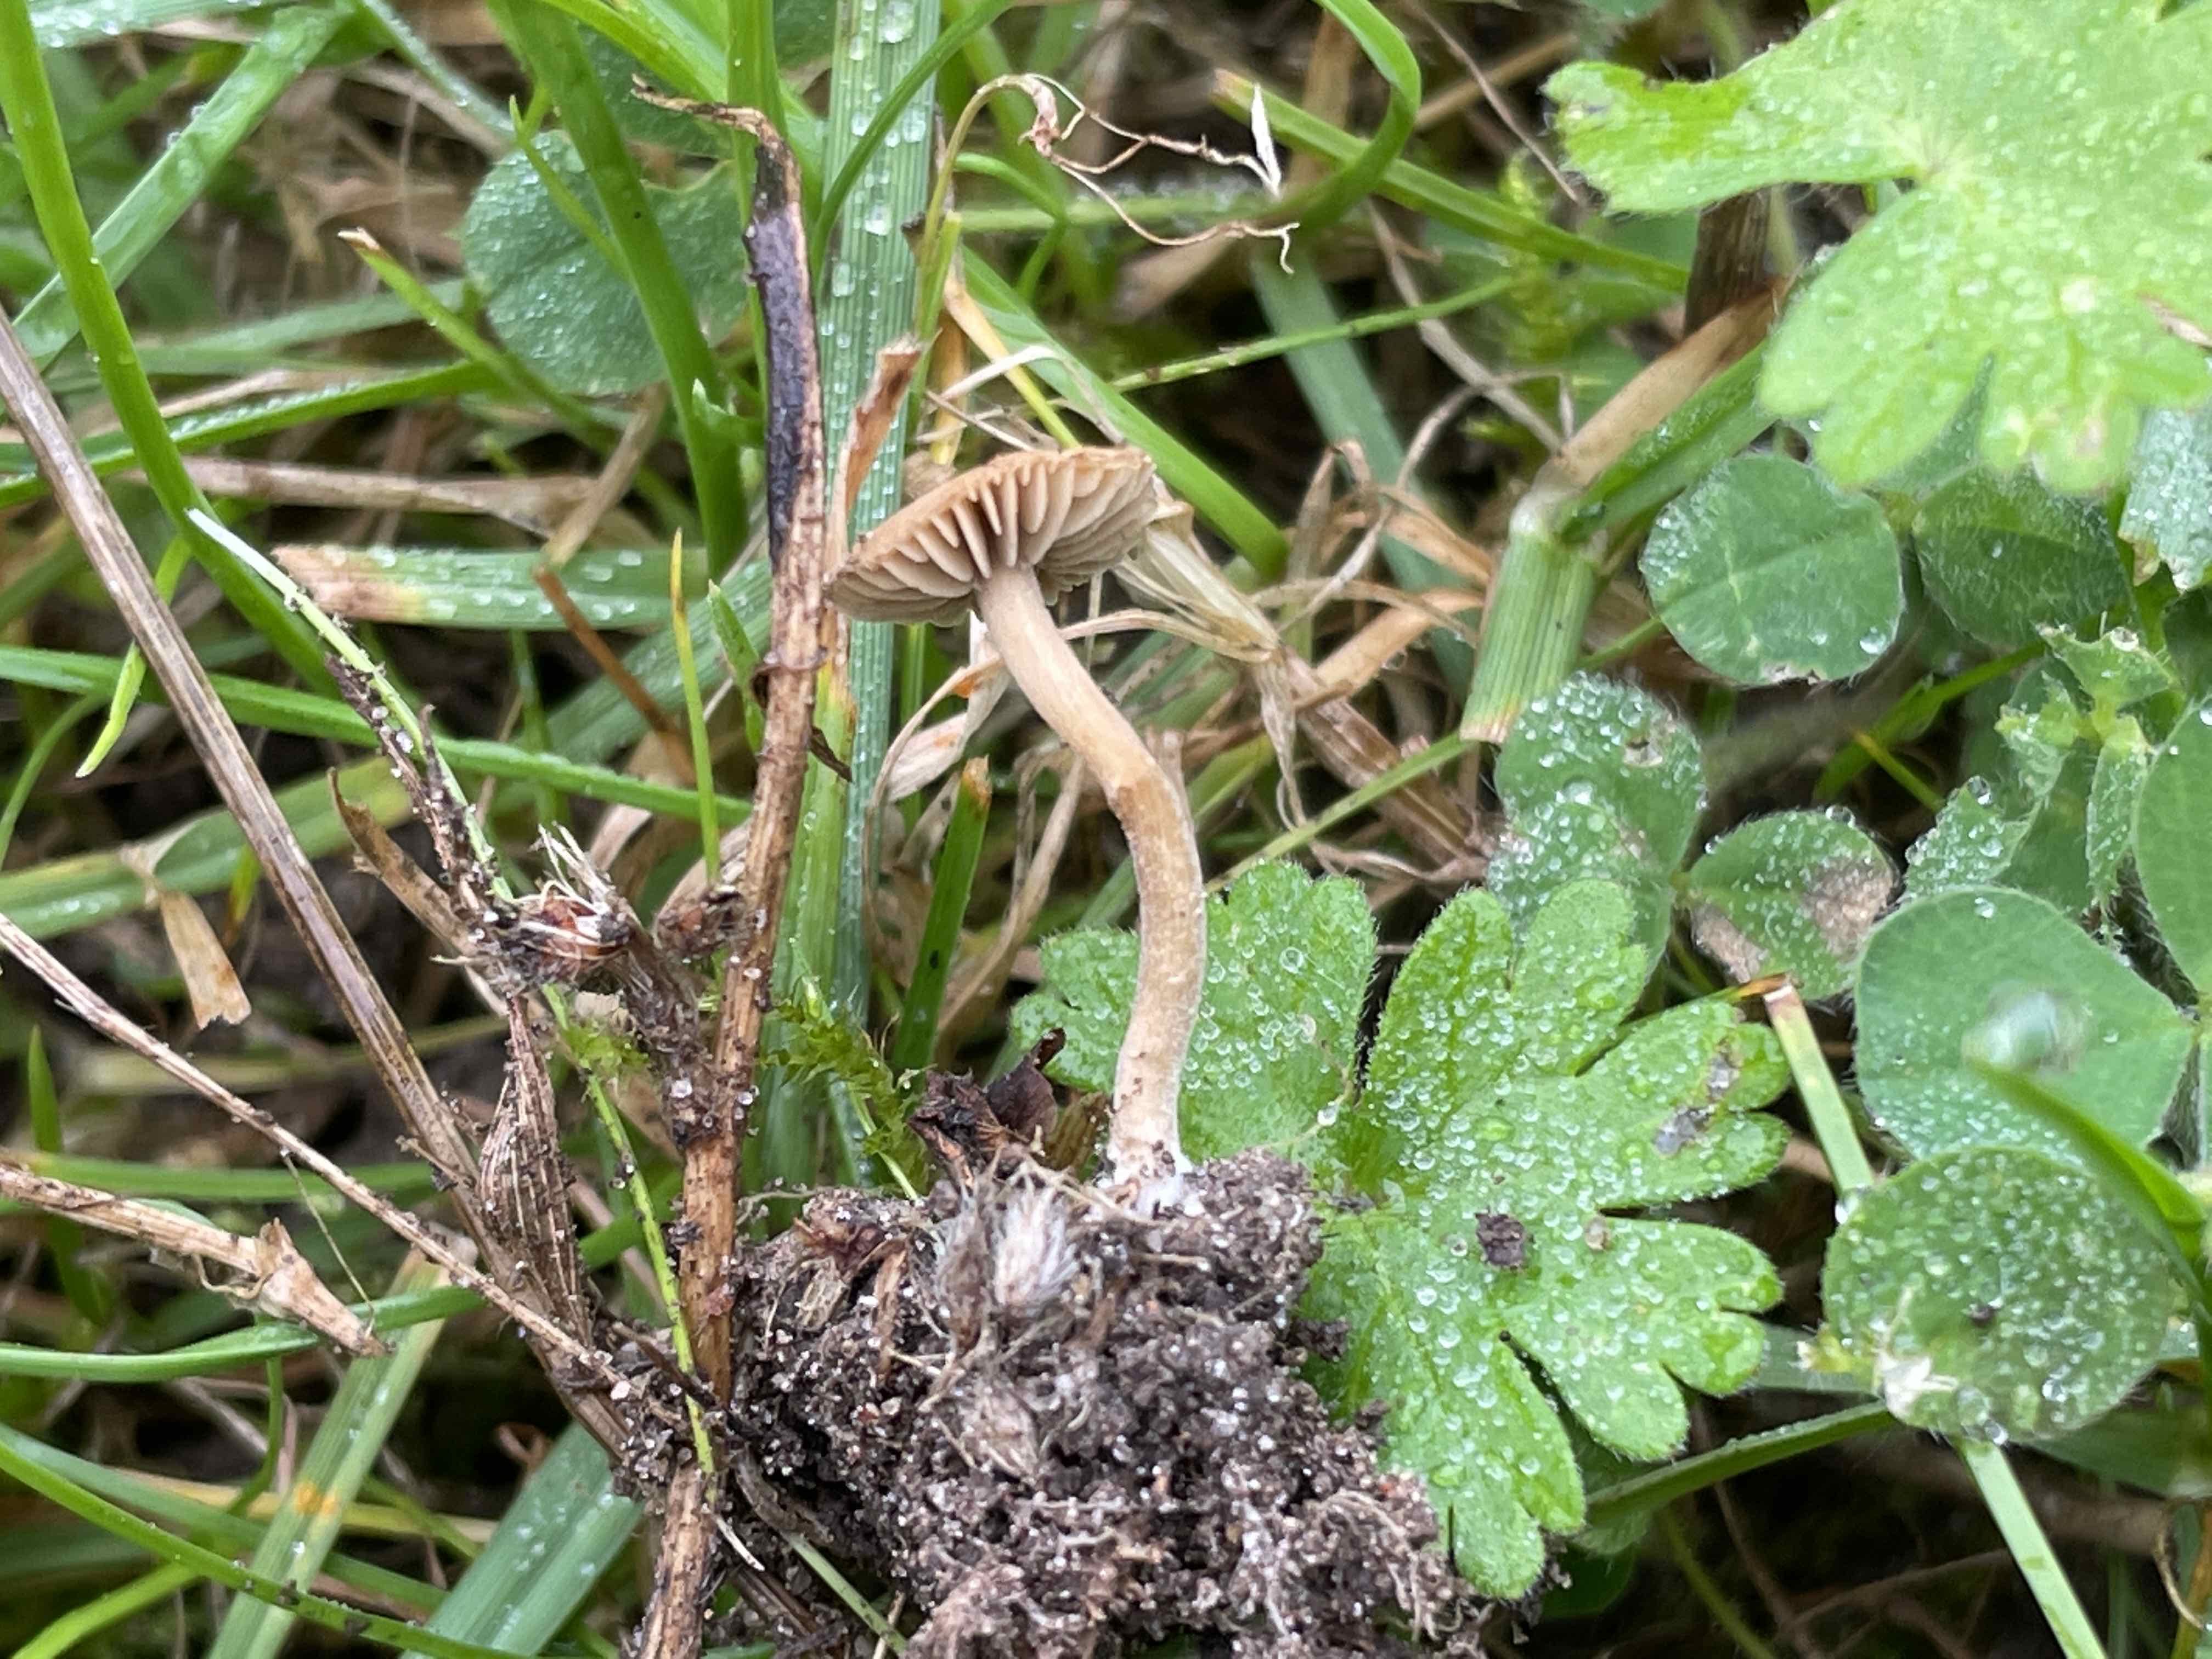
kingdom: Fungi
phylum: Basidiomycota
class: Agaricomycetes
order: Agaricales
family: Crepidotaceae
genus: Simocybe
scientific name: Simocybe
